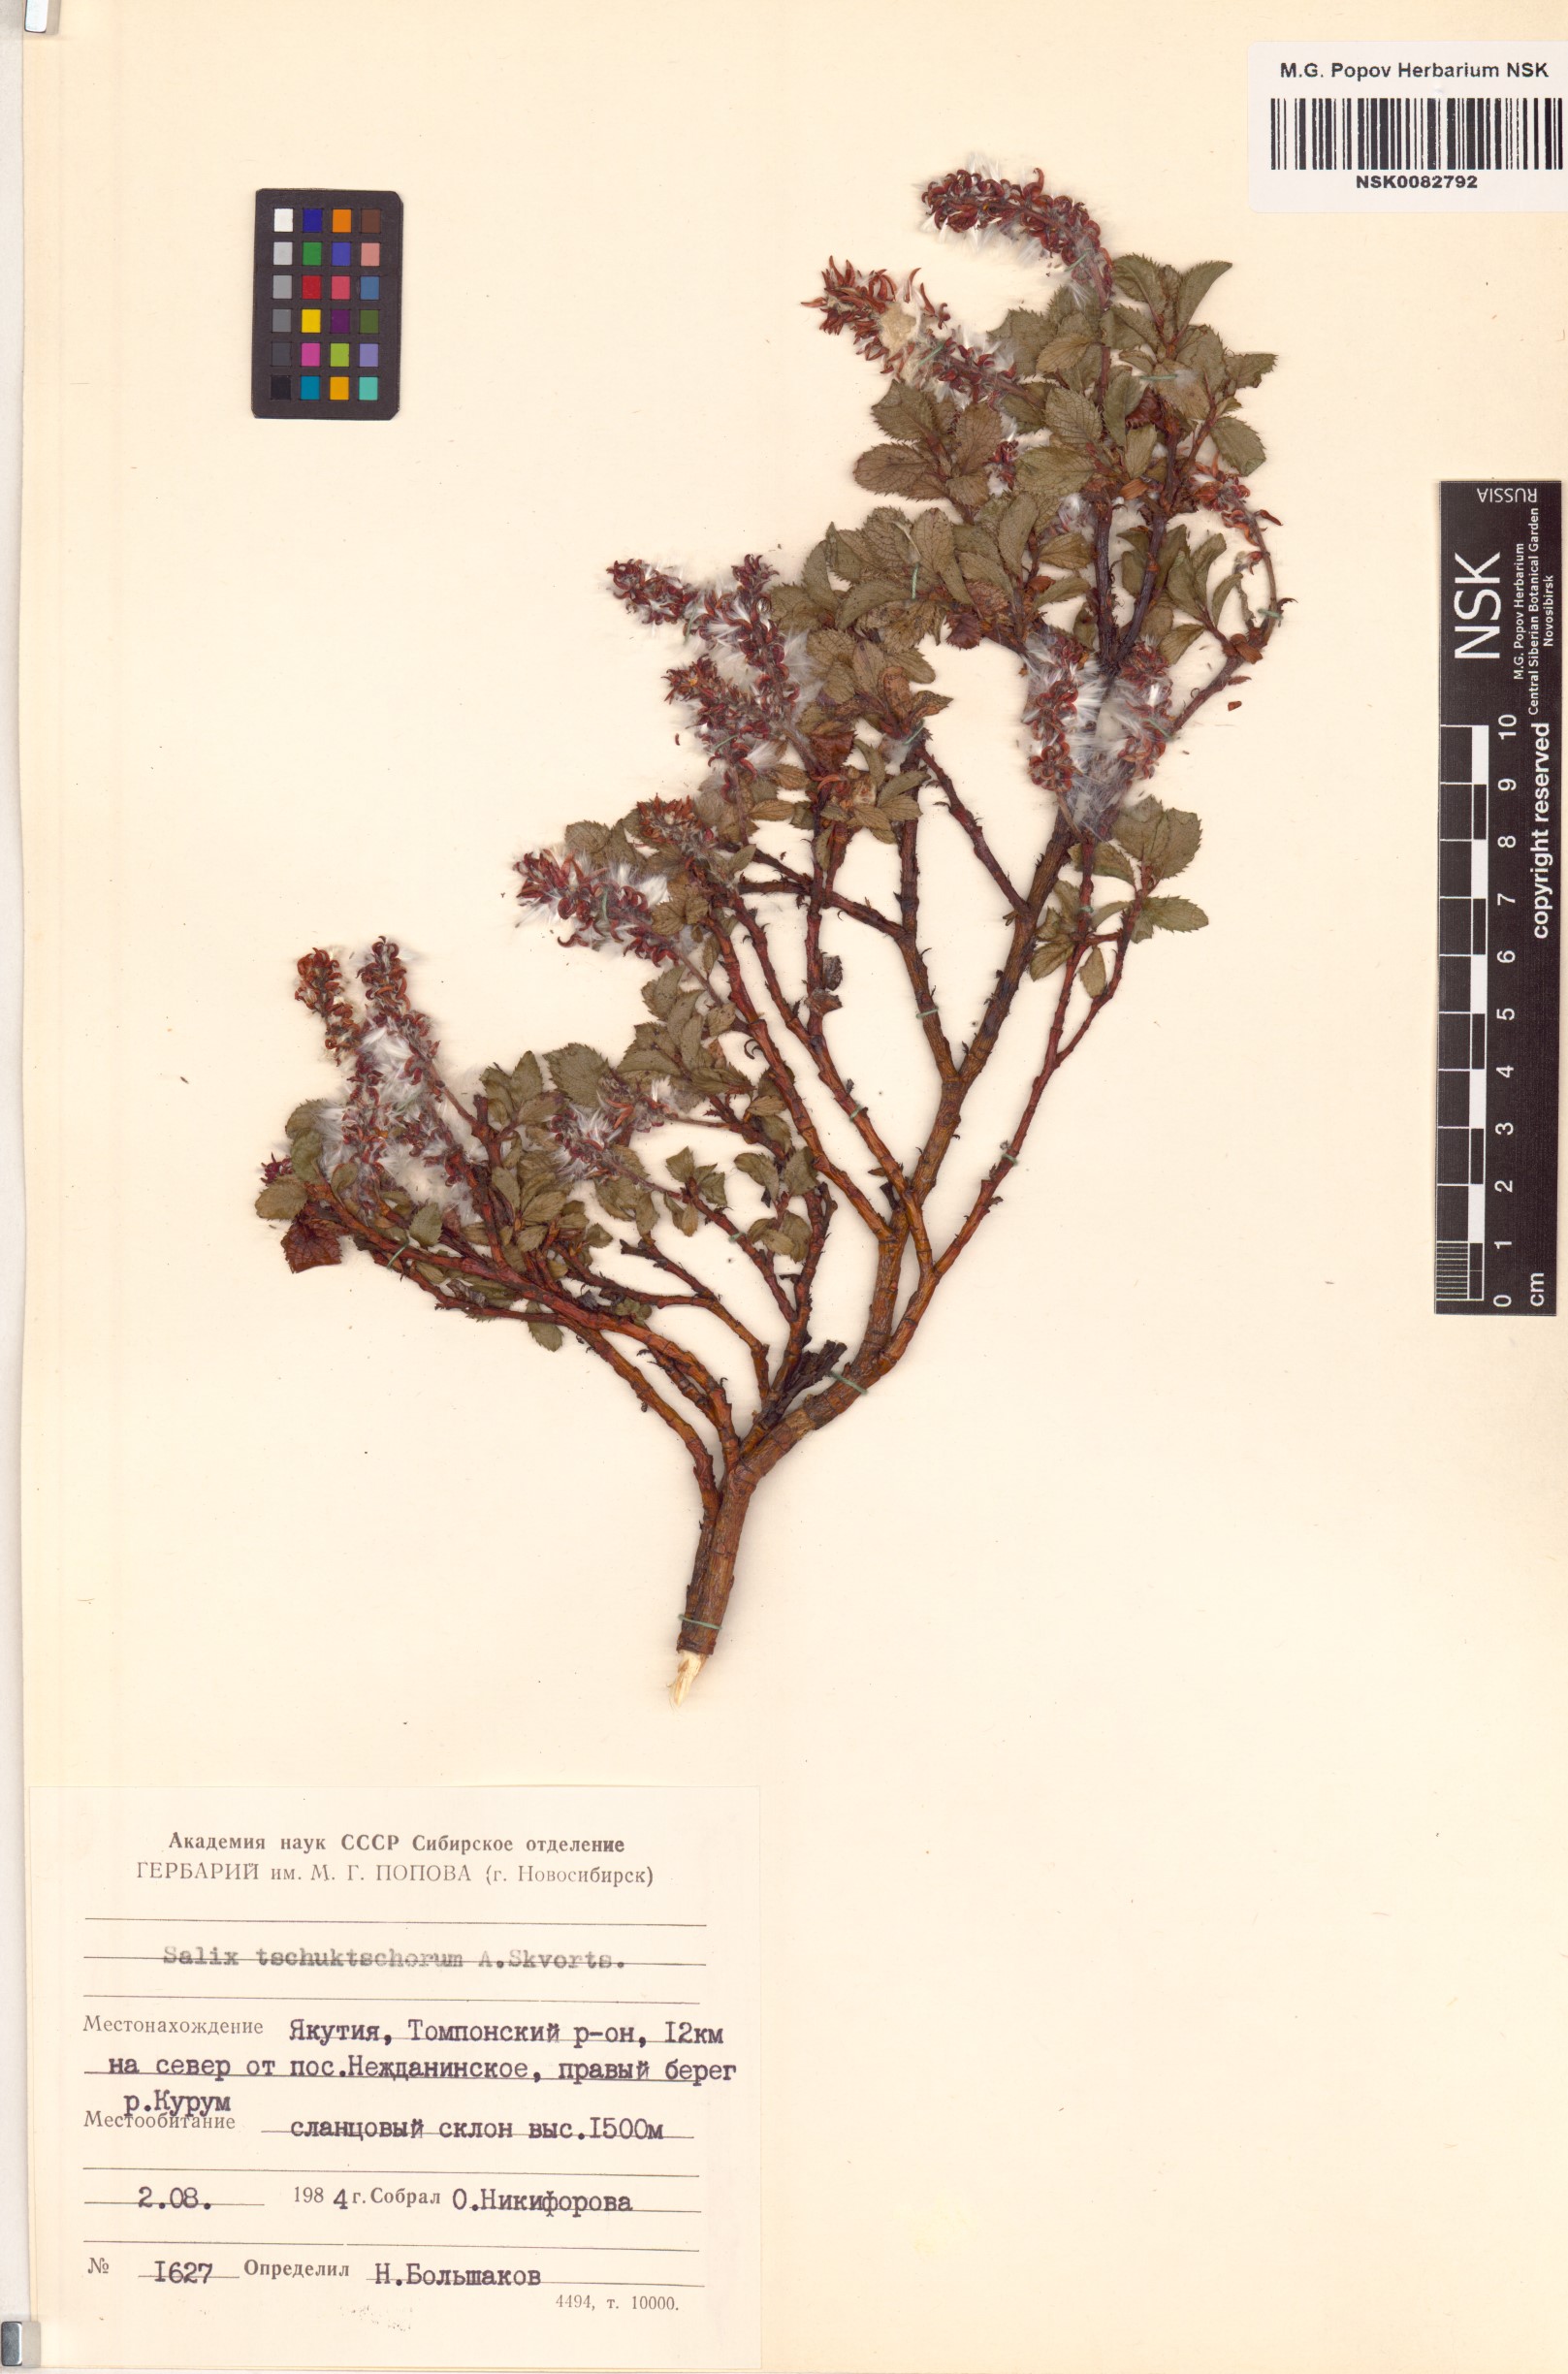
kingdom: Plantae
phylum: Tracheophyta
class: Magnoliopsida
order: Malpighiales
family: Salicaceae
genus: Salix
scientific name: Salix tschuktschorum
